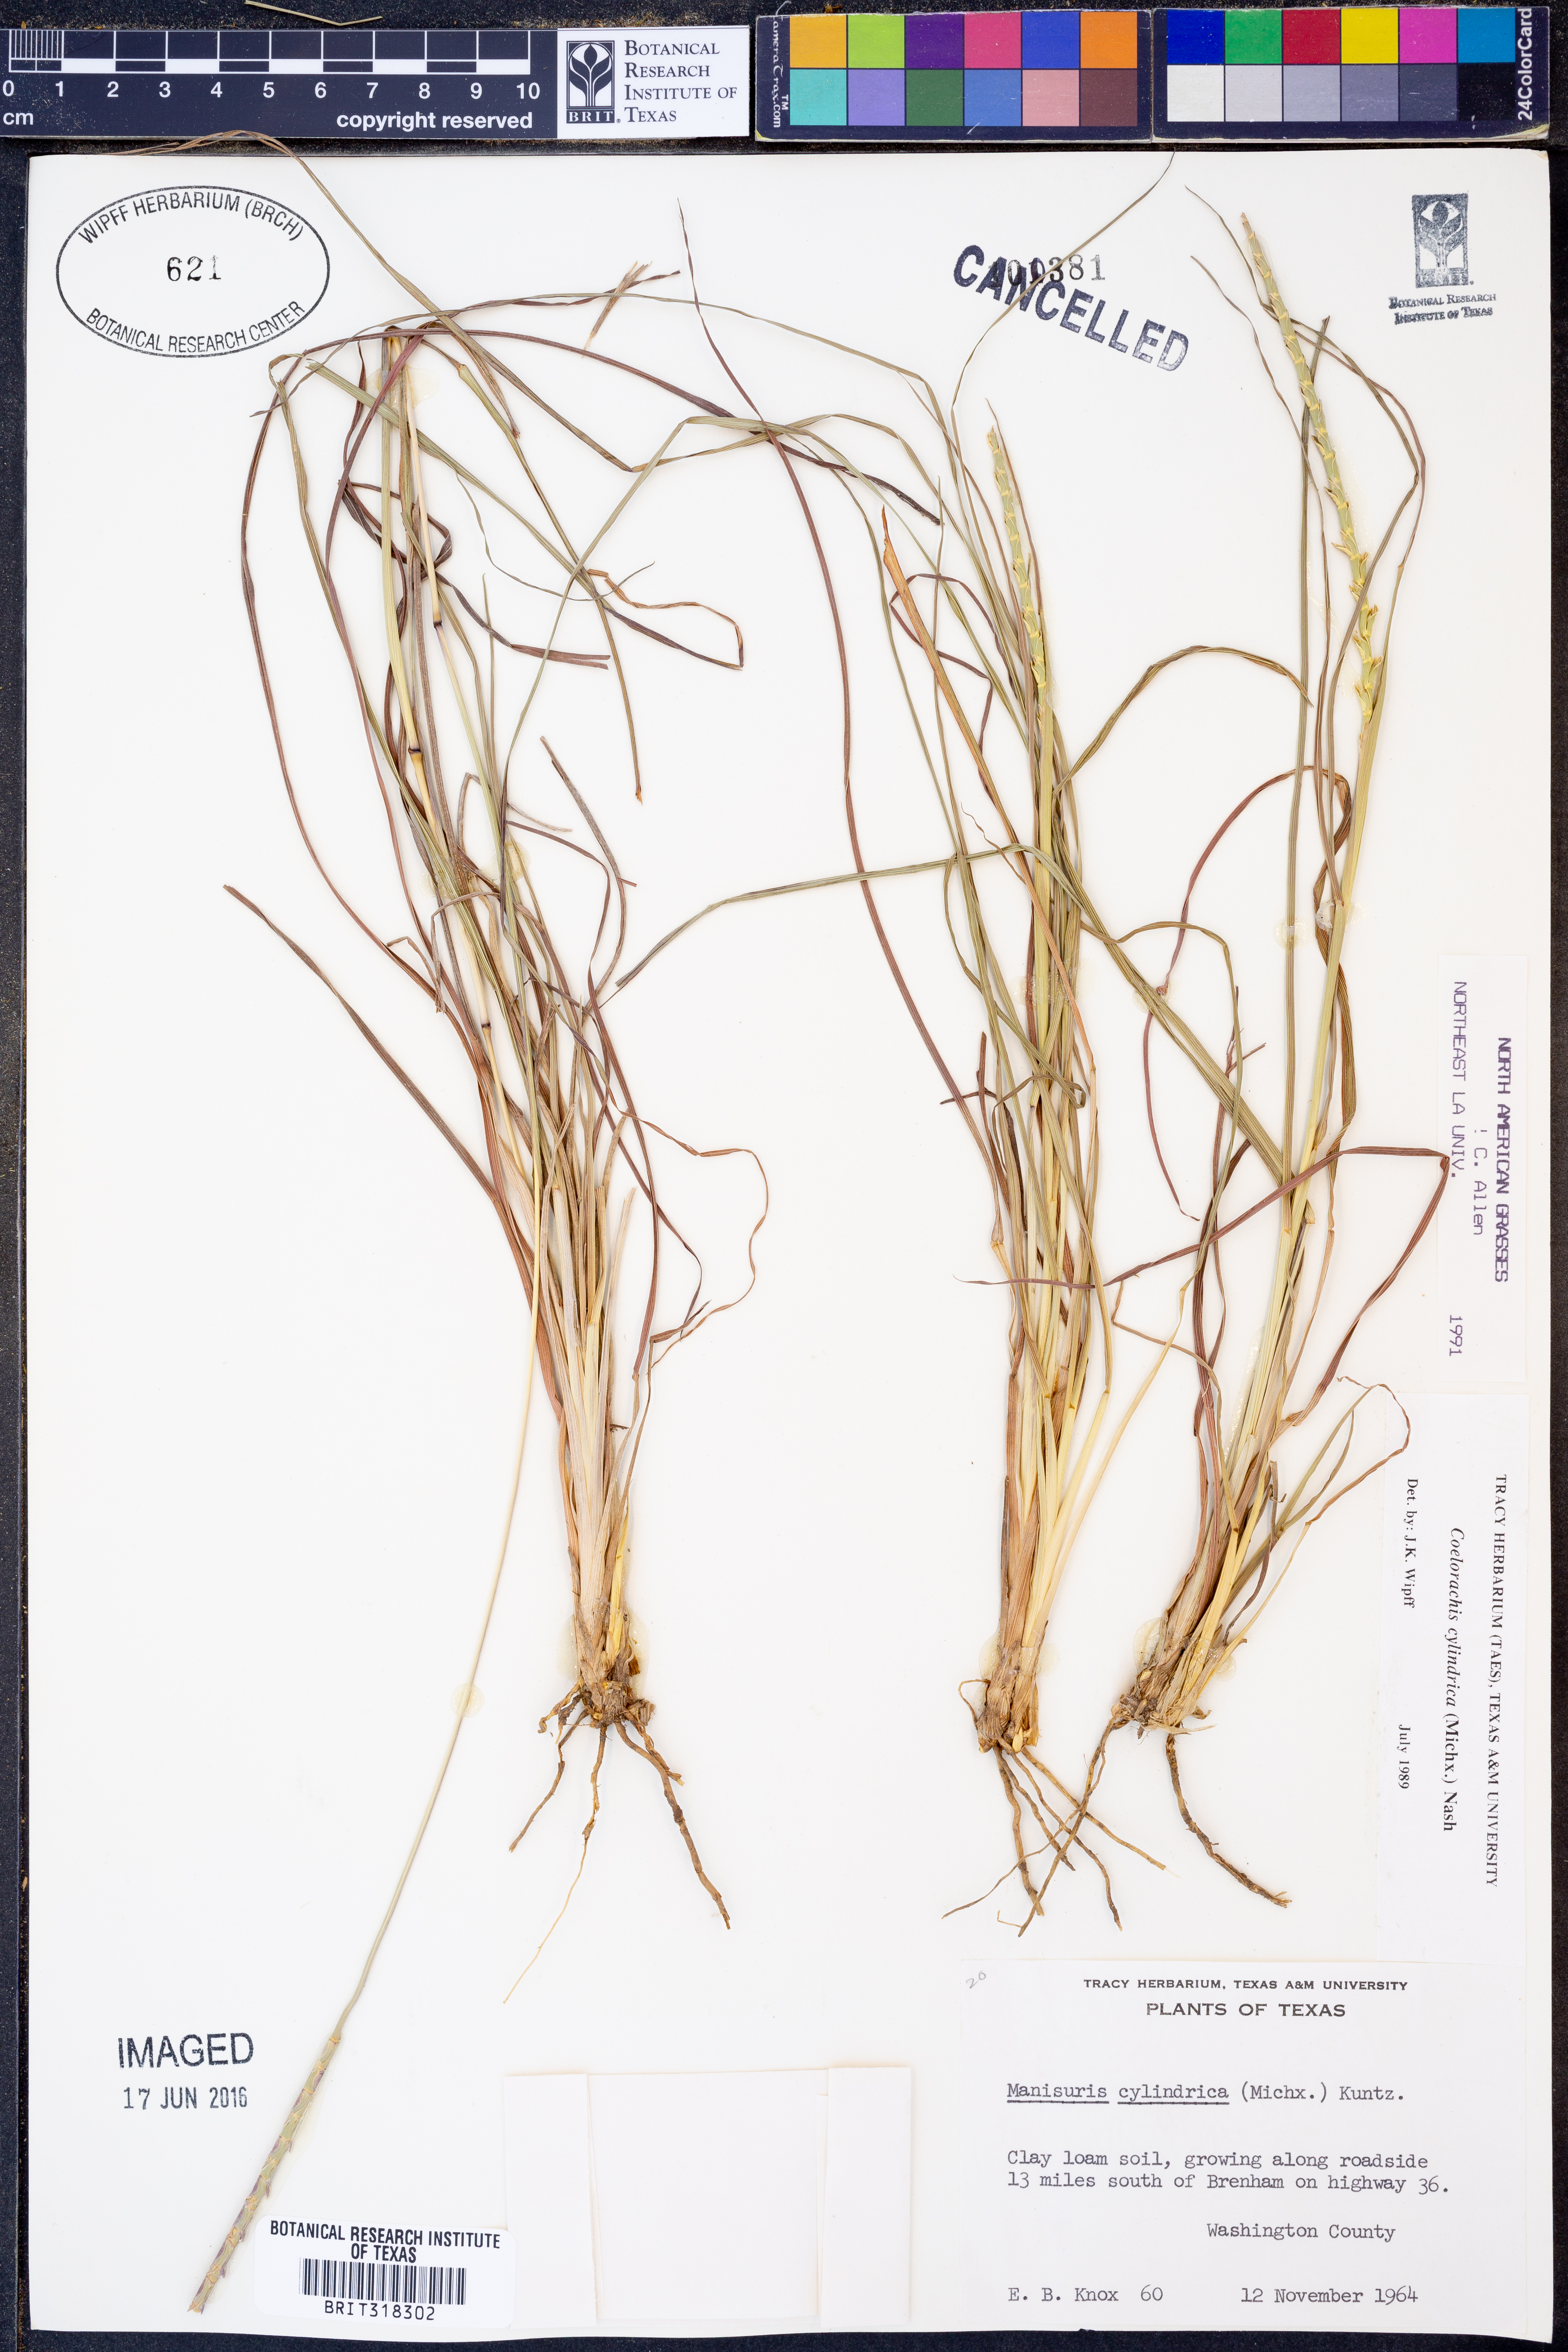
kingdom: Plantae
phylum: Tracheophyta
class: Liliopsida
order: Poales
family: Poaceae
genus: Rottboellia
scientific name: Rottboellia campestris
